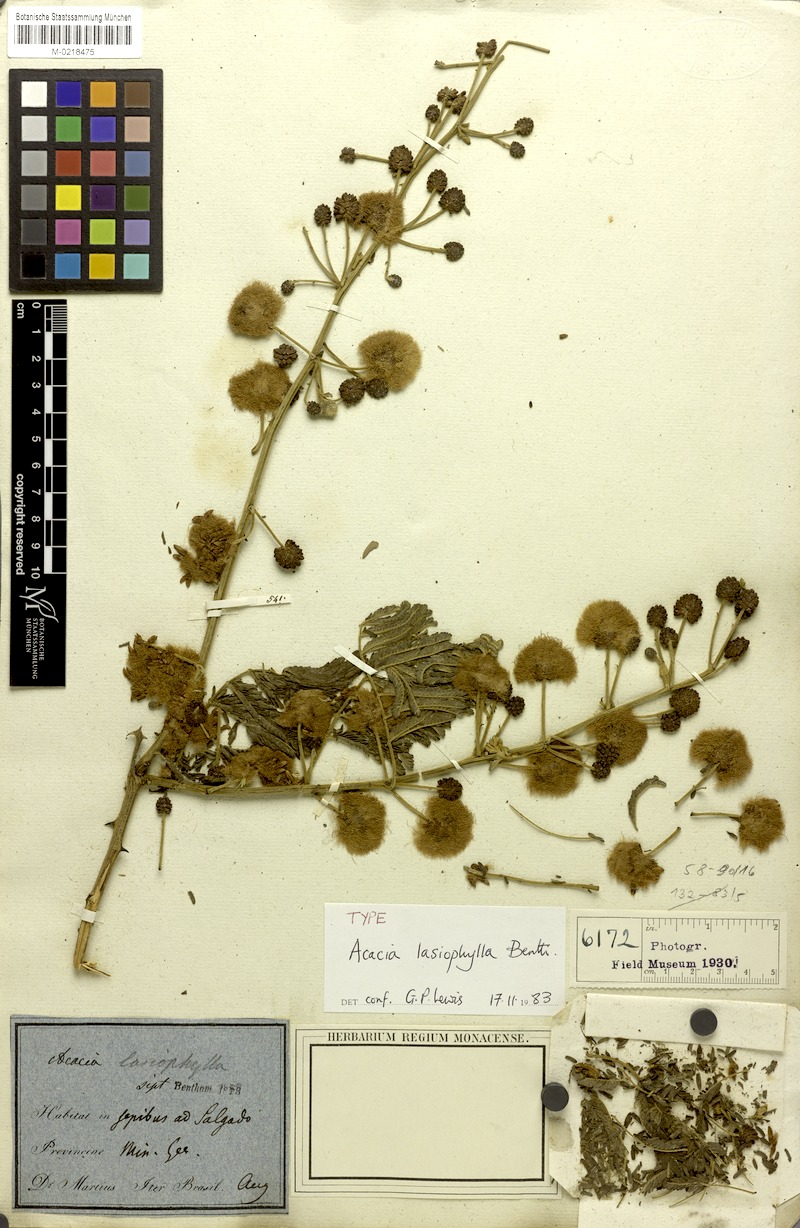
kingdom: Plantae
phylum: Tracheophyta
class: Magnoliopsida
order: Fabales
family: Fabaceae
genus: Senegalia
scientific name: Senegalia lasiophylla
